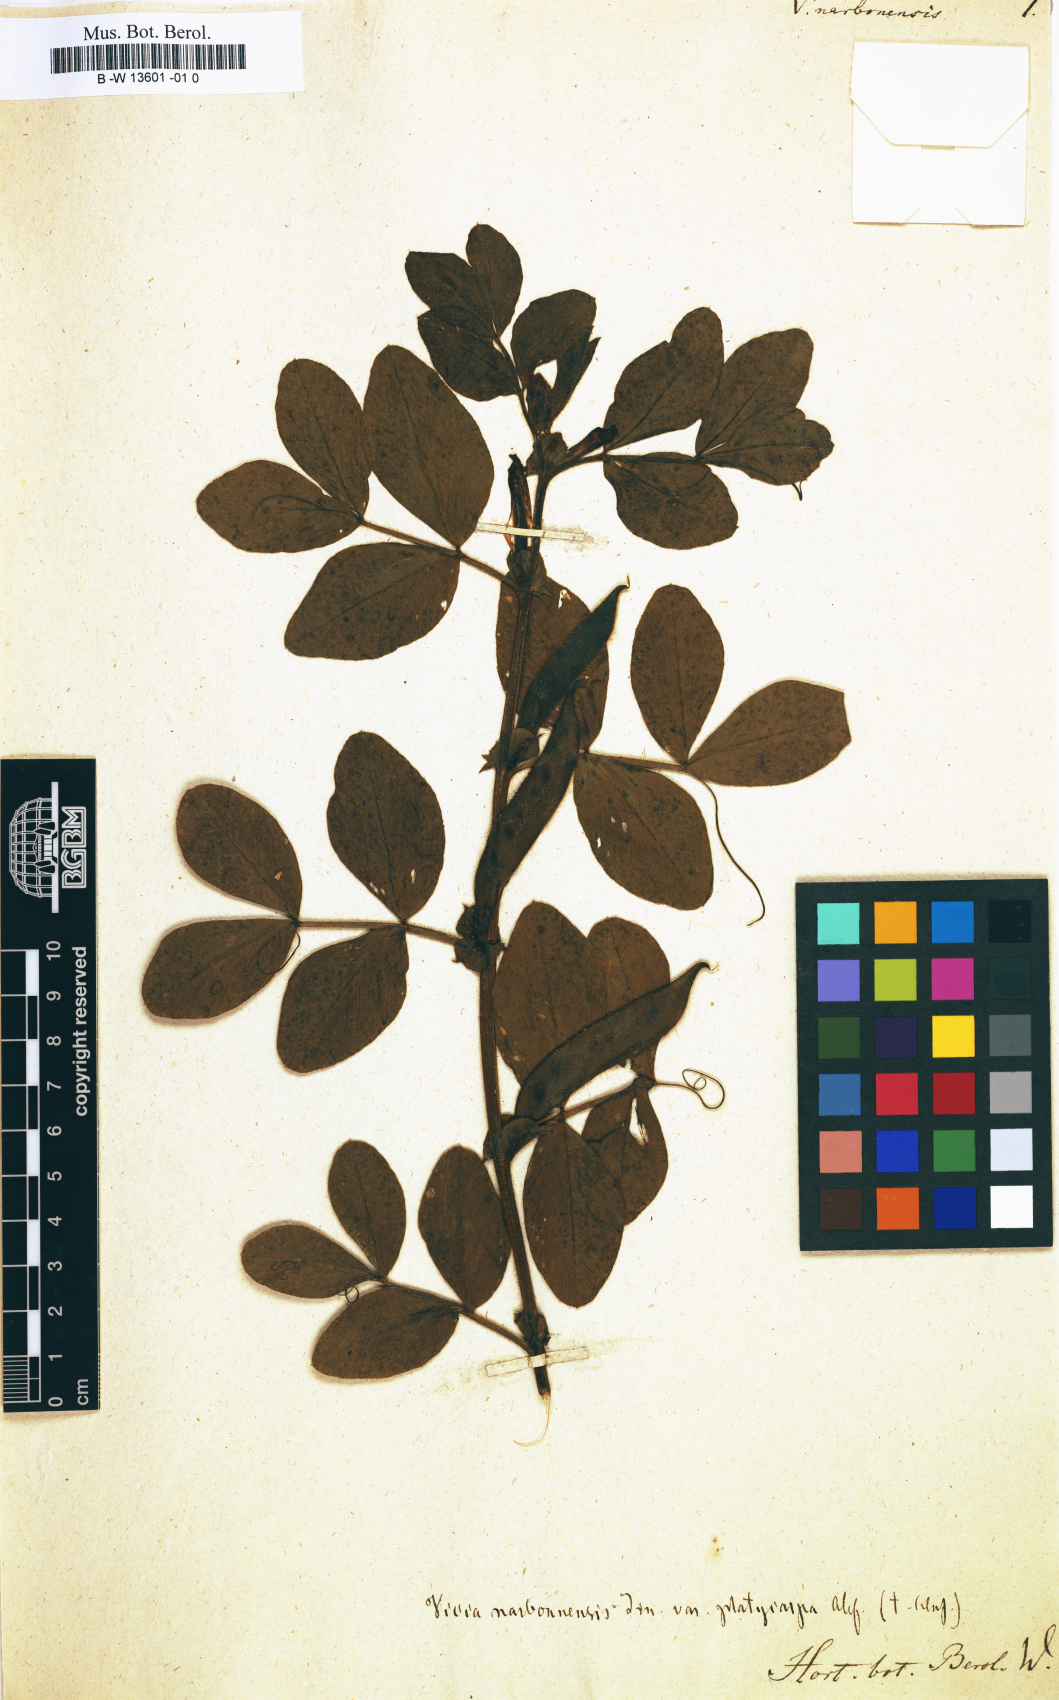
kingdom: Plantae
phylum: Tracheophyta
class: Magnoliopsida
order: Fabales
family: Fabaceae
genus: Vicia
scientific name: Vicia narbonensis
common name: Narbonne vetch
